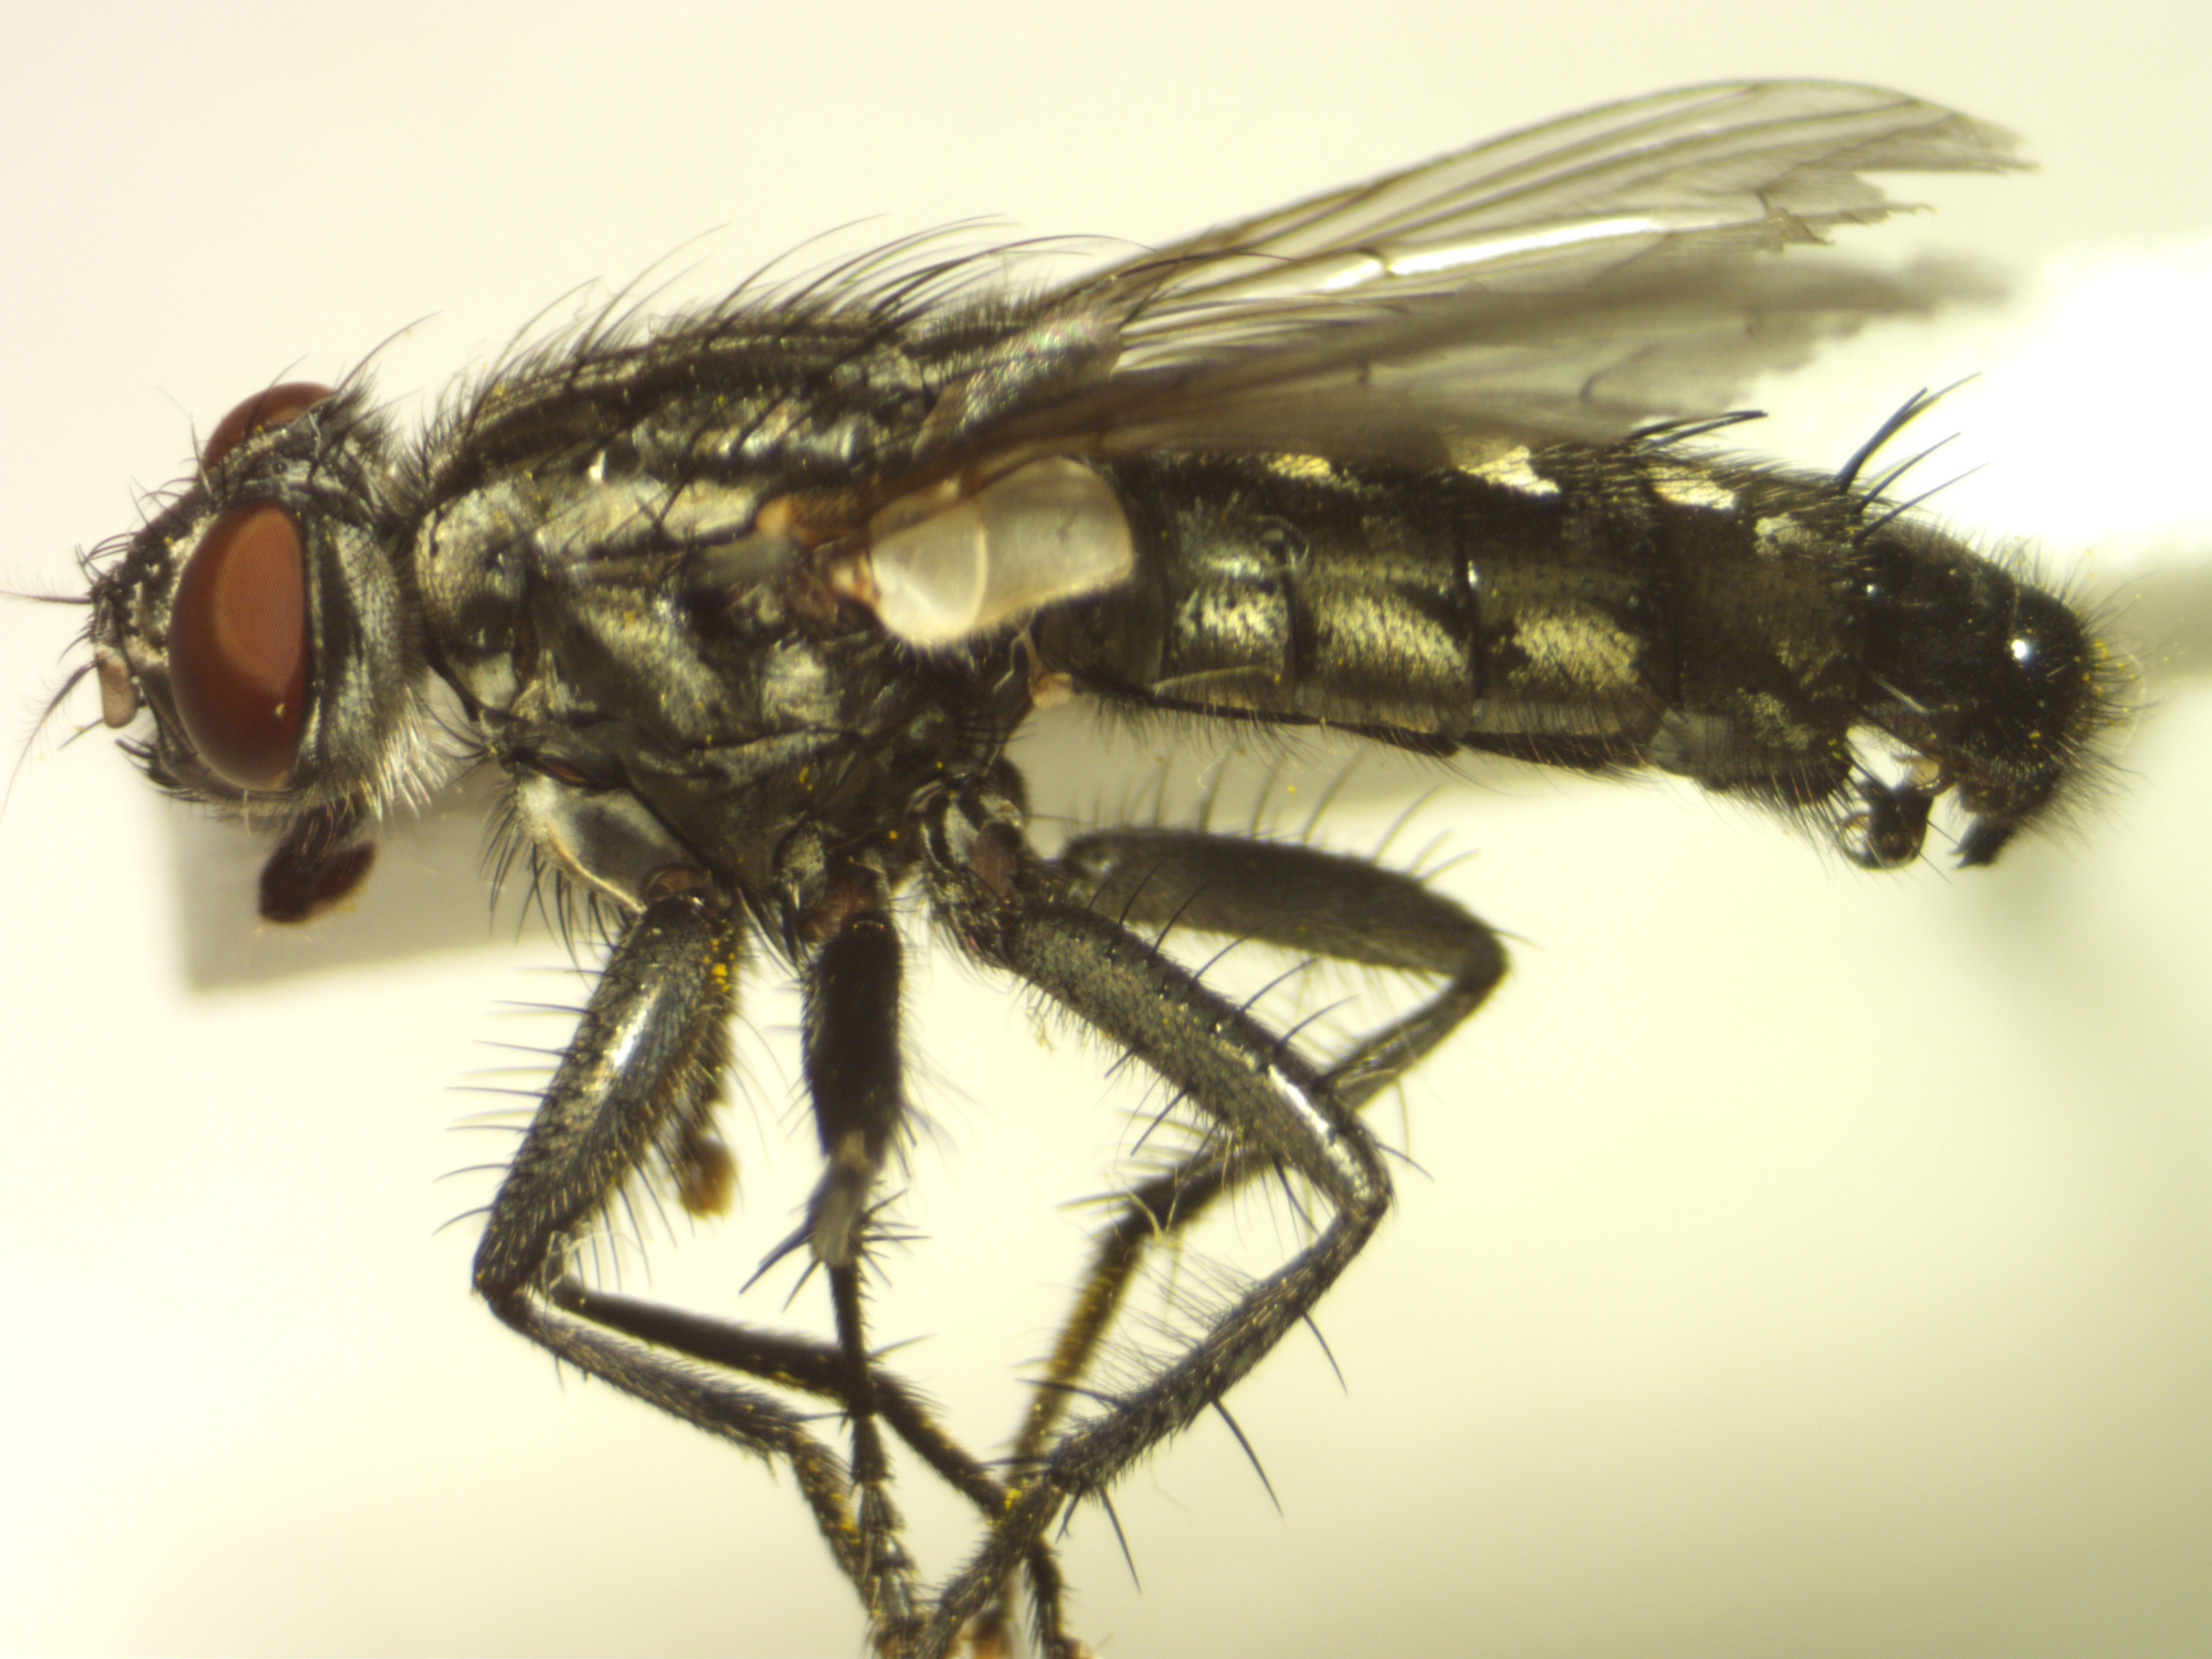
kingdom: Animalia
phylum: Arthropoda
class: Insecta
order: Diptera
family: Sarcophagidae
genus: Sarcophaga
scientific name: Sarcophaga incisilobata
